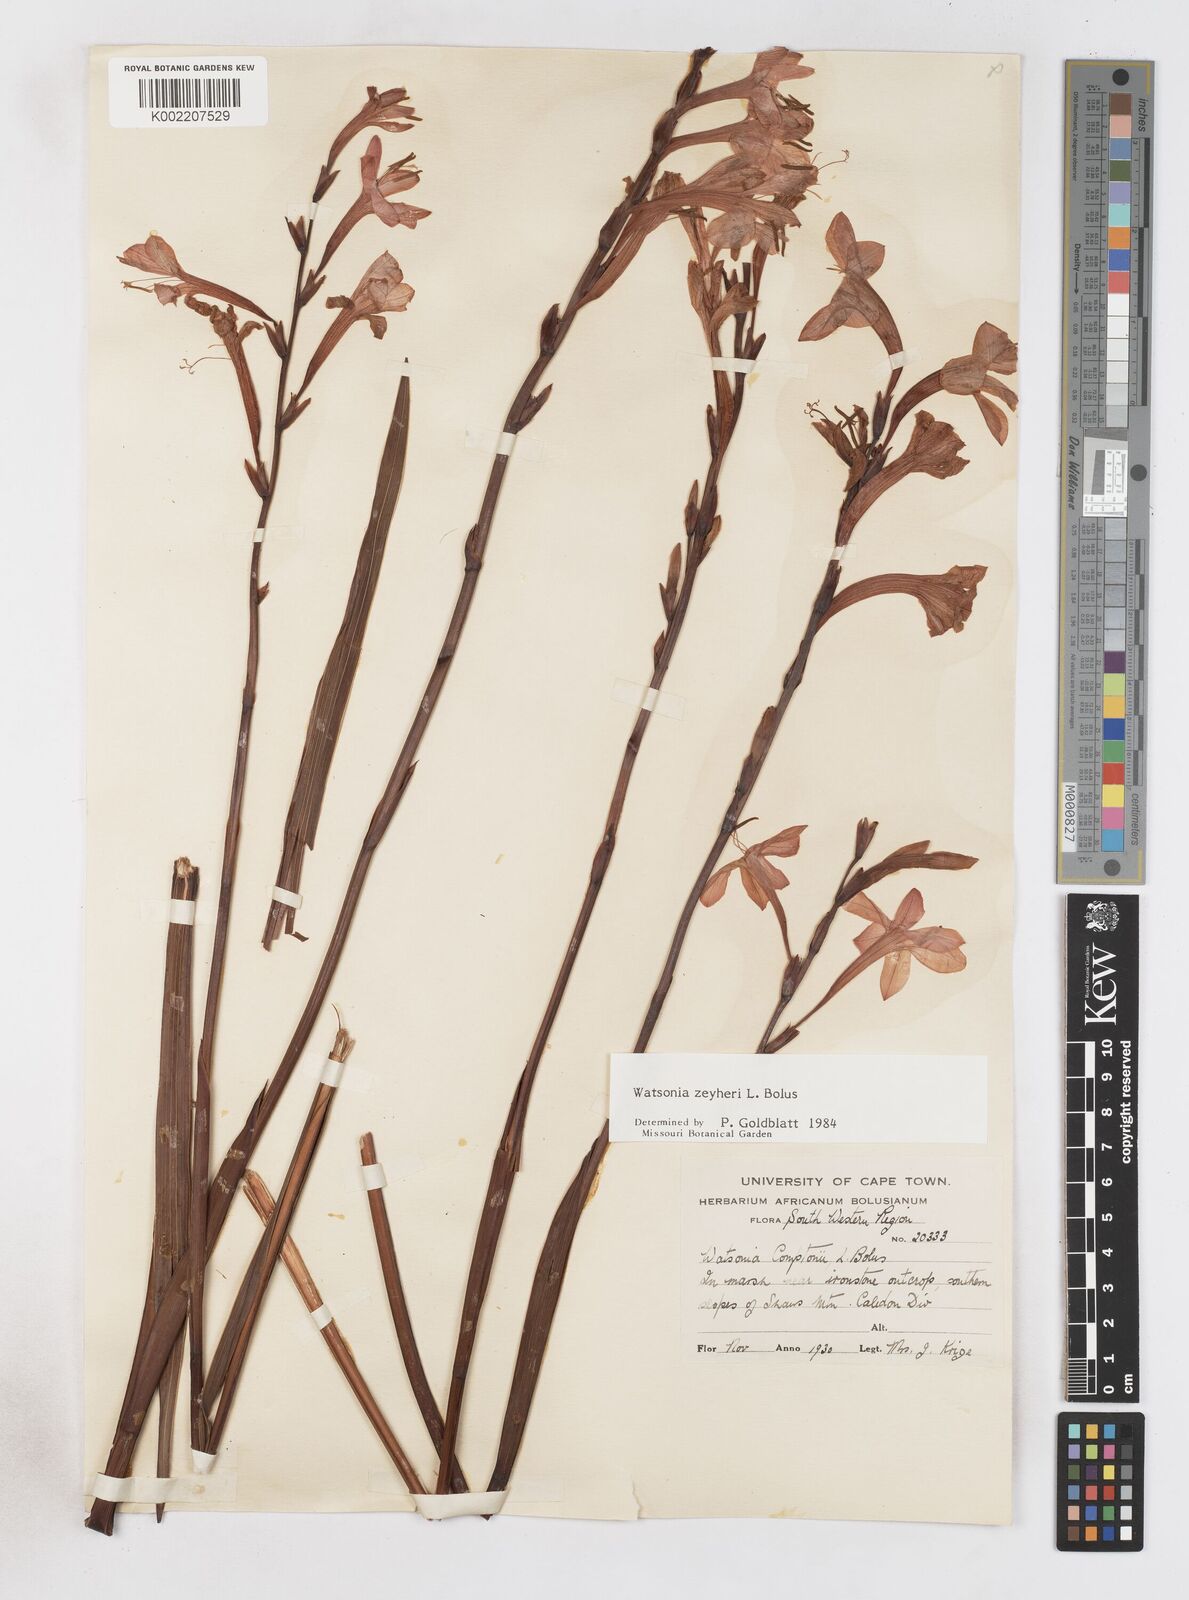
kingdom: Plantae
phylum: Tracheophyta
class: Liliopsida
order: Asparagales
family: Iridaceae
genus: Watsonia
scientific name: Watsonia zeyheri
